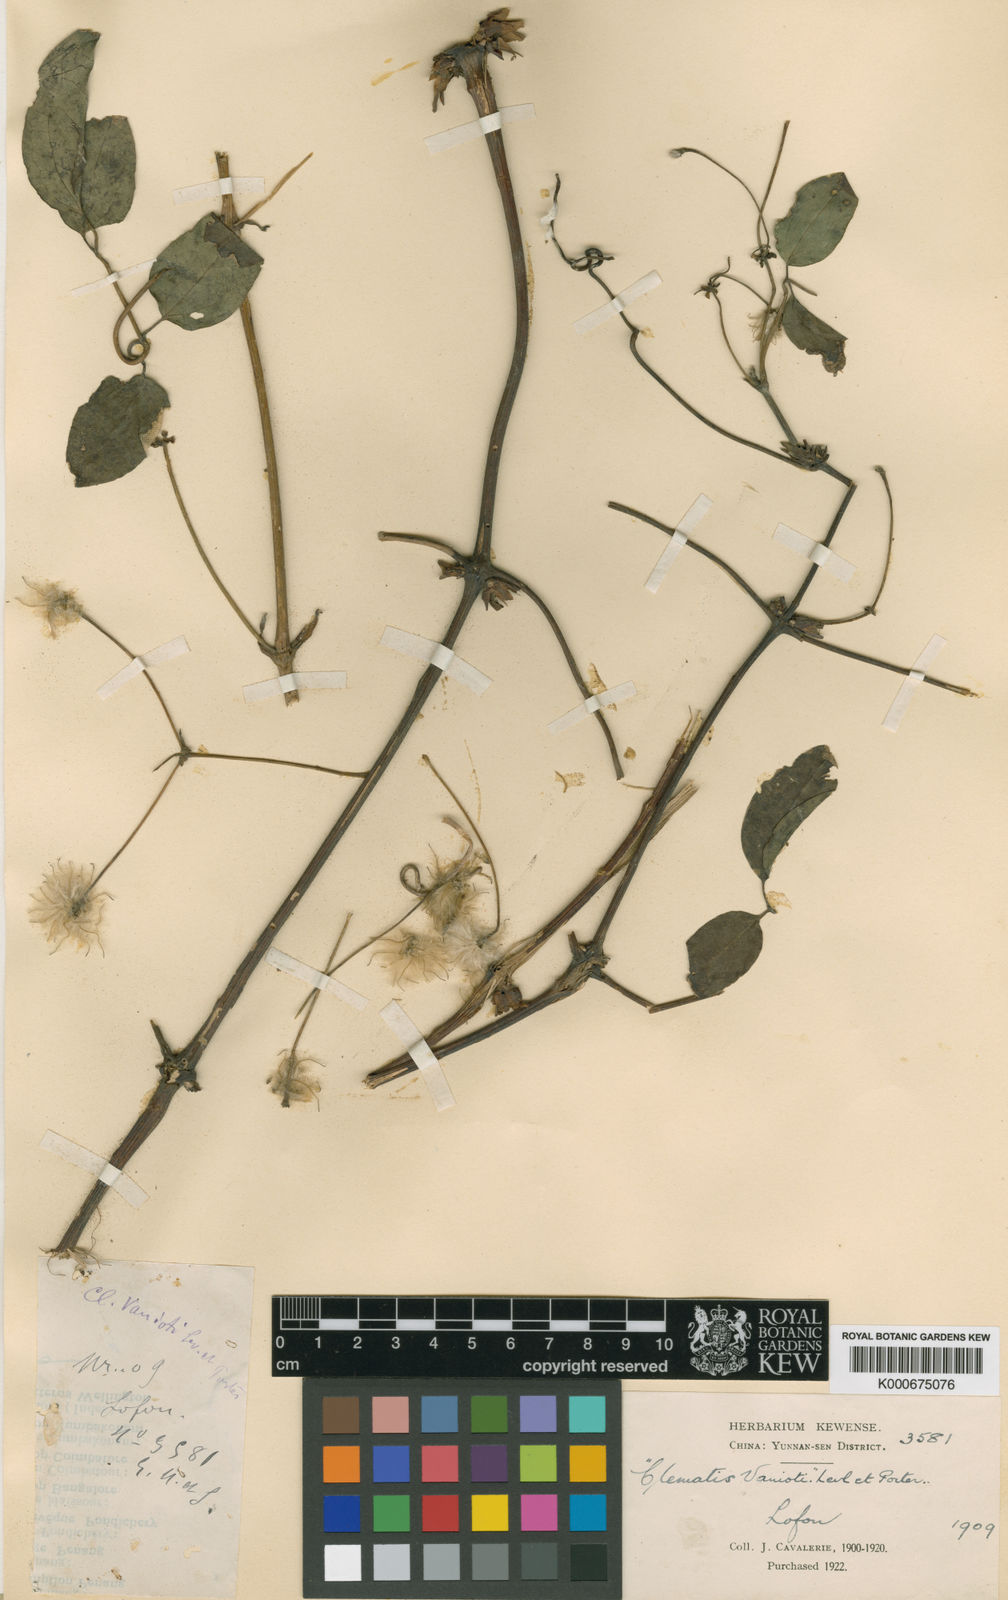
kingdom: Plantae
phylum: Tracheophyta
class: Magnoliopsida
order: Ranunculales
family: Ranunculaceae
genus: Clematis
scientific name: Clematis
